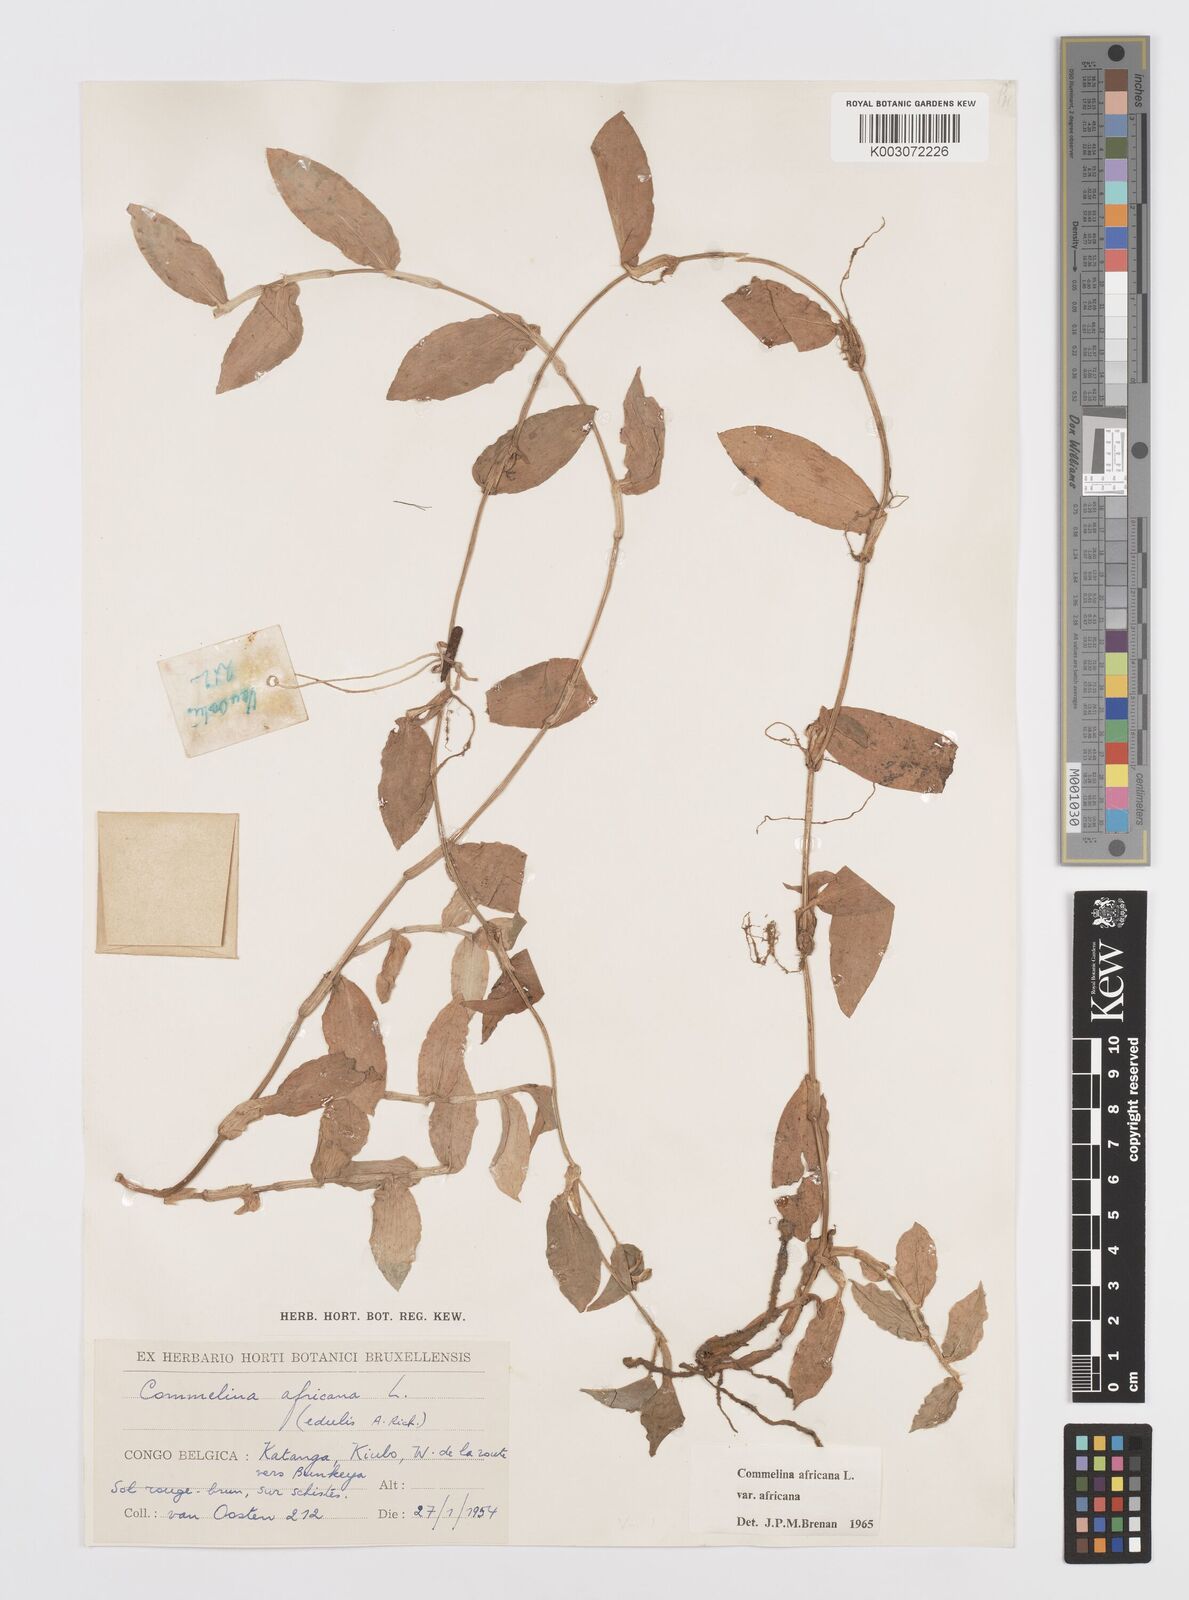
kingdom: Plantae
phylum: Tracheophyta
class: Liliopsida
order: Commelinales
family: Commelinaceae
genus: Commelina
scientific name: Commelina africana
